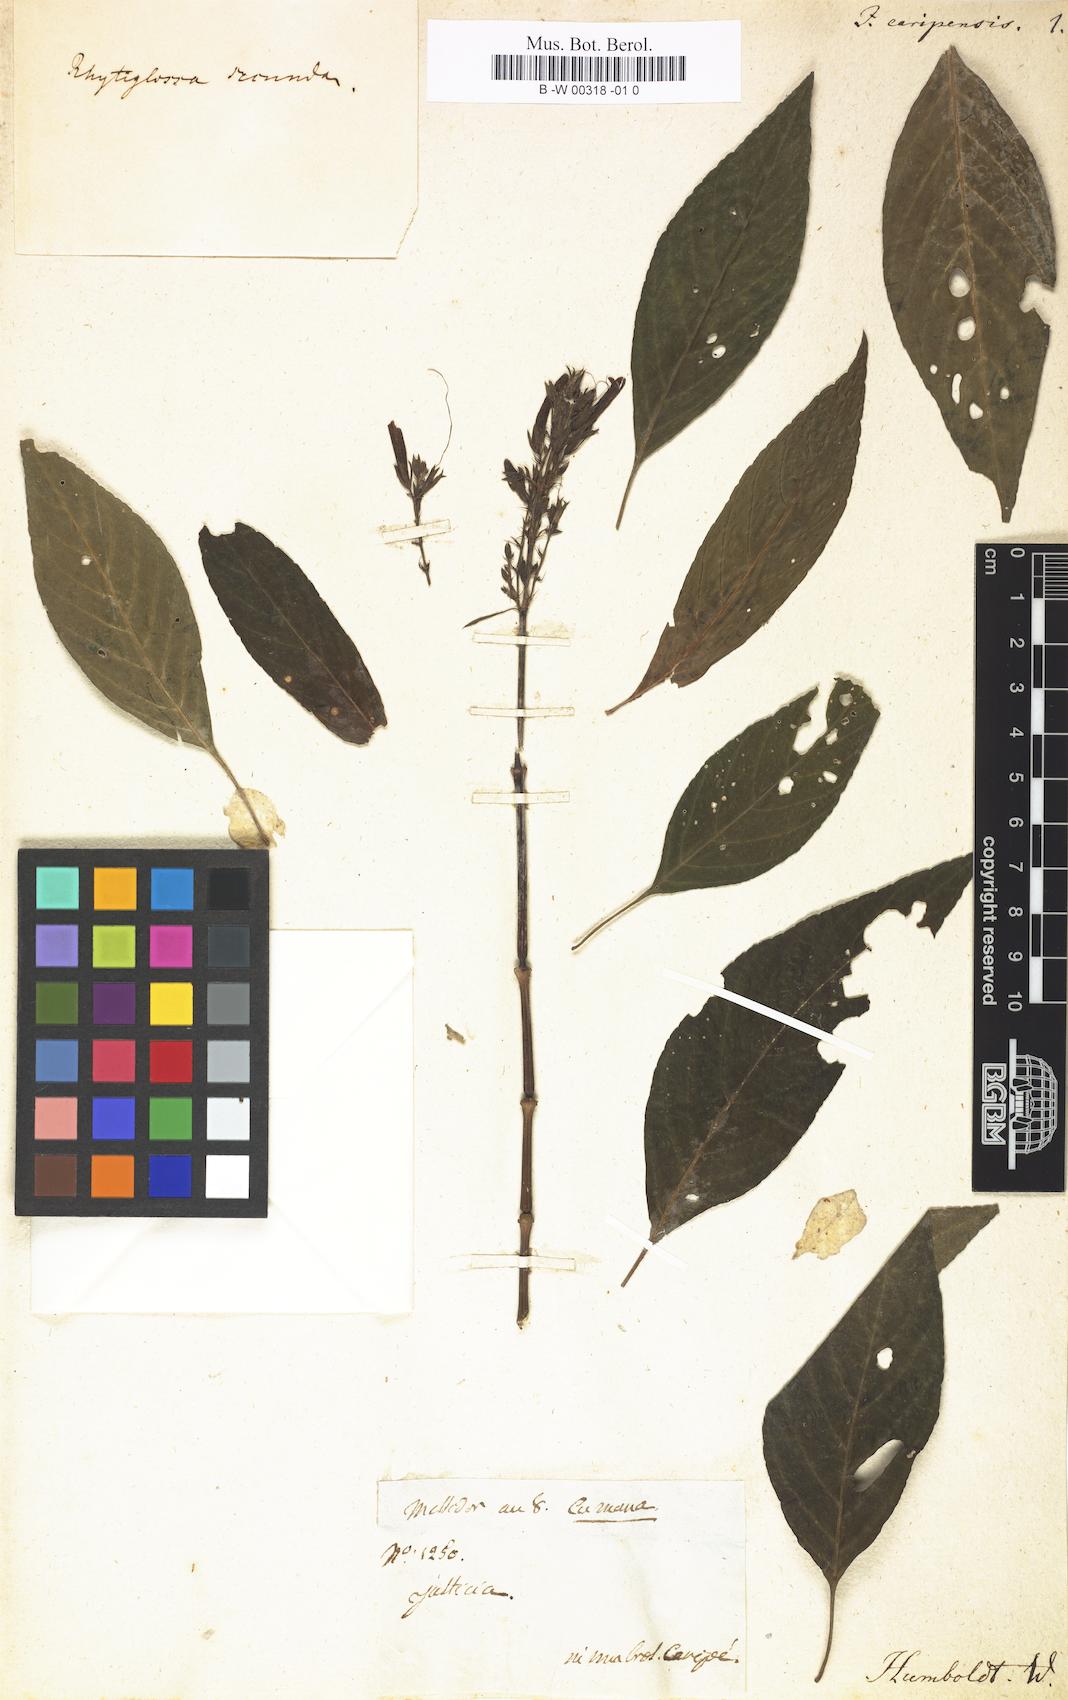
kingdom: Plantae
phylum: Tracheophyta
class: Magnoliopsida
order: Lamiales
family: Acanthaceae
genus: Dianthera
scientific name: Dianthera secunda
